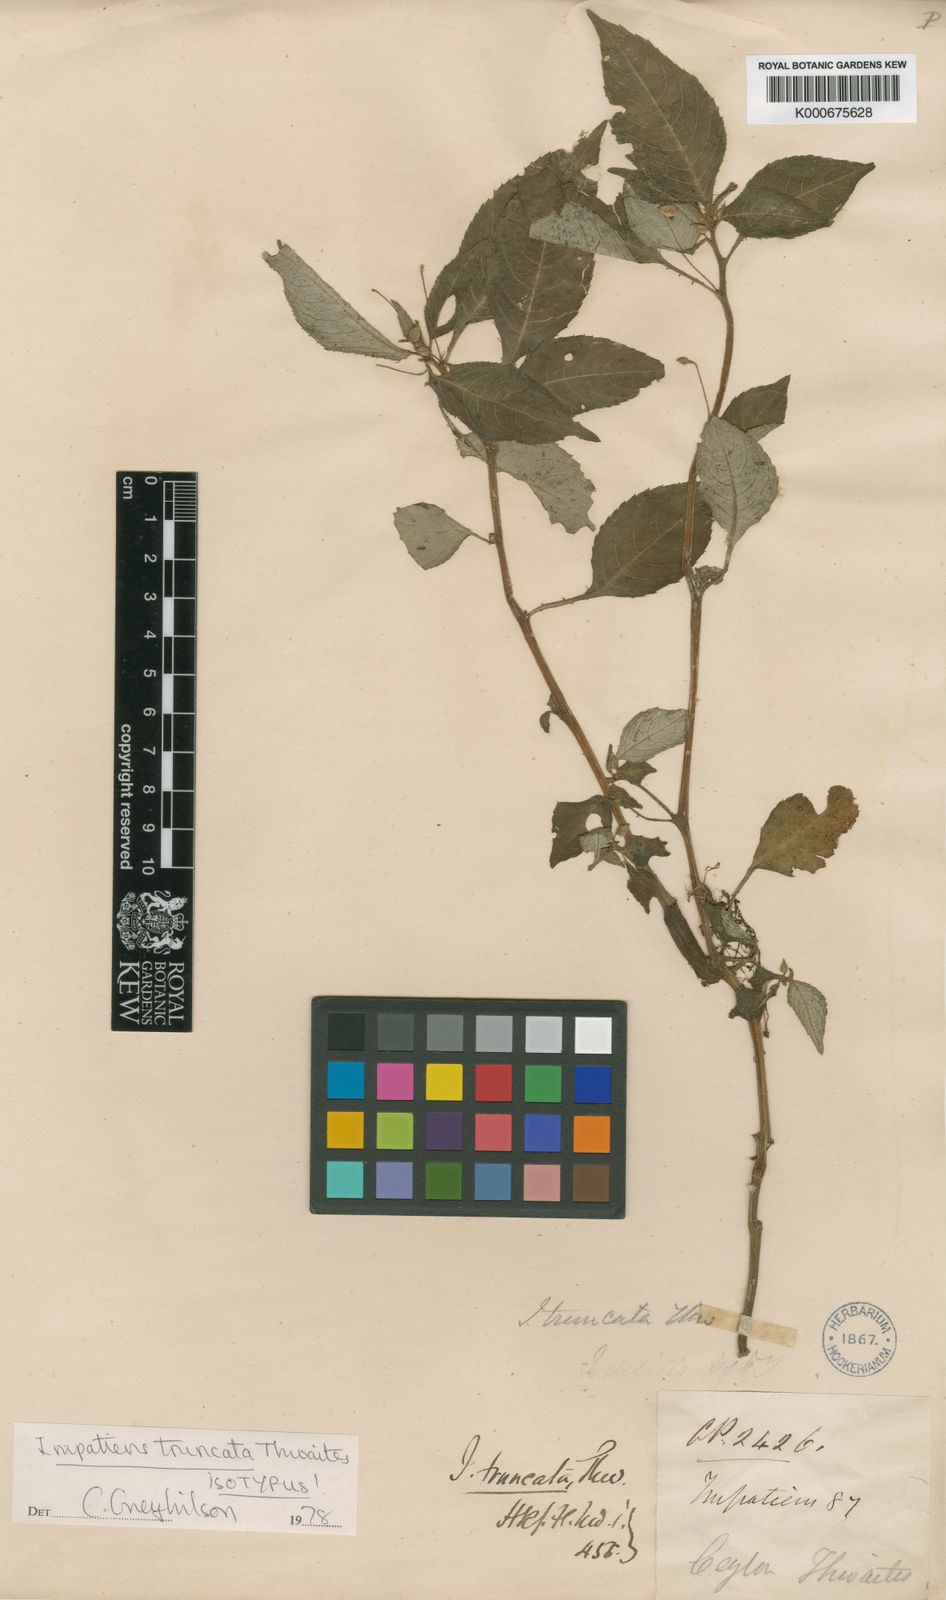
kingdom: Plantae
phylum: Tracheophyta
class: Magnoliopsida
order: Ericales
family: Balsaminaceae
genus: Impatiens
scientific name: Impatiens truncata
